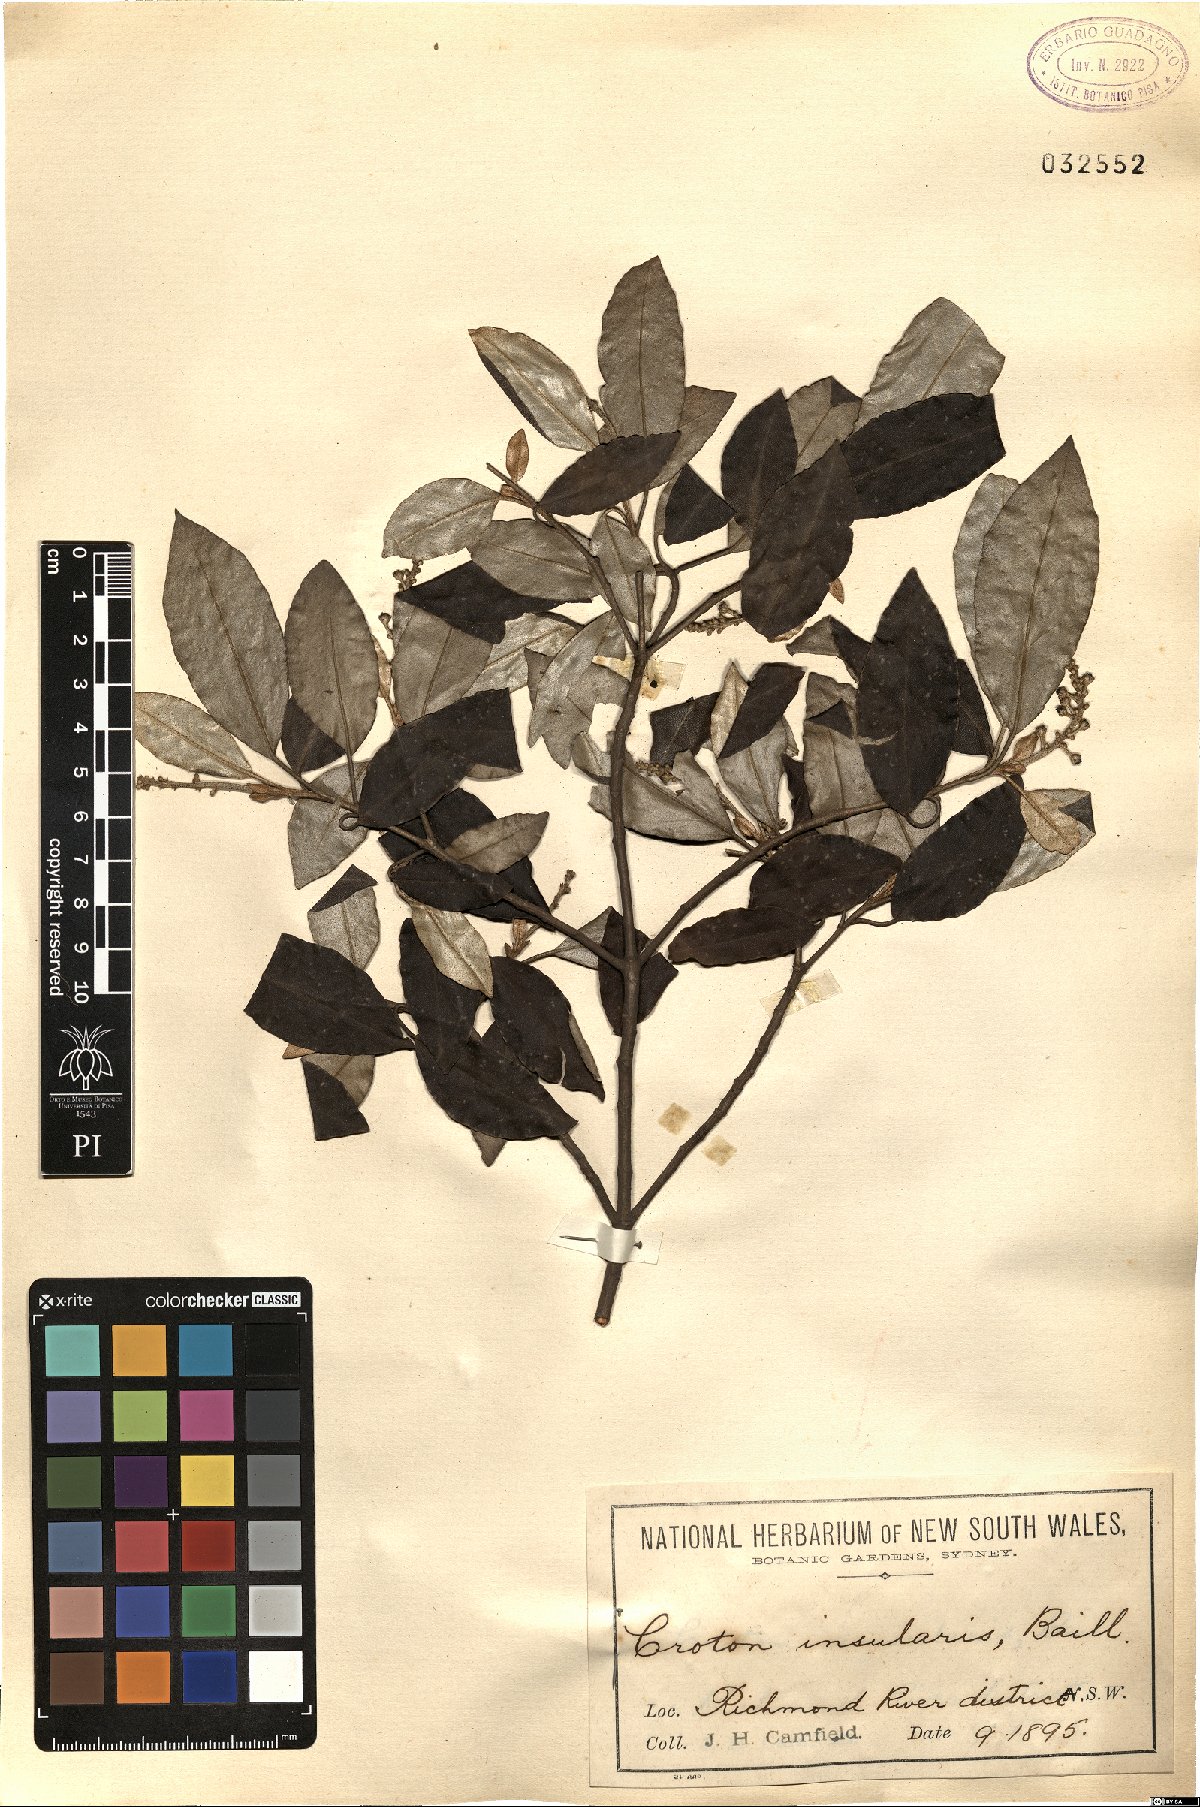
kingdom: Plantae
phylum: Tracheophyta
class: Magnoliopsida
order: Malpighiales
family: Euphorbiaceae
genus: Croton
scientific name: Croton insularis
